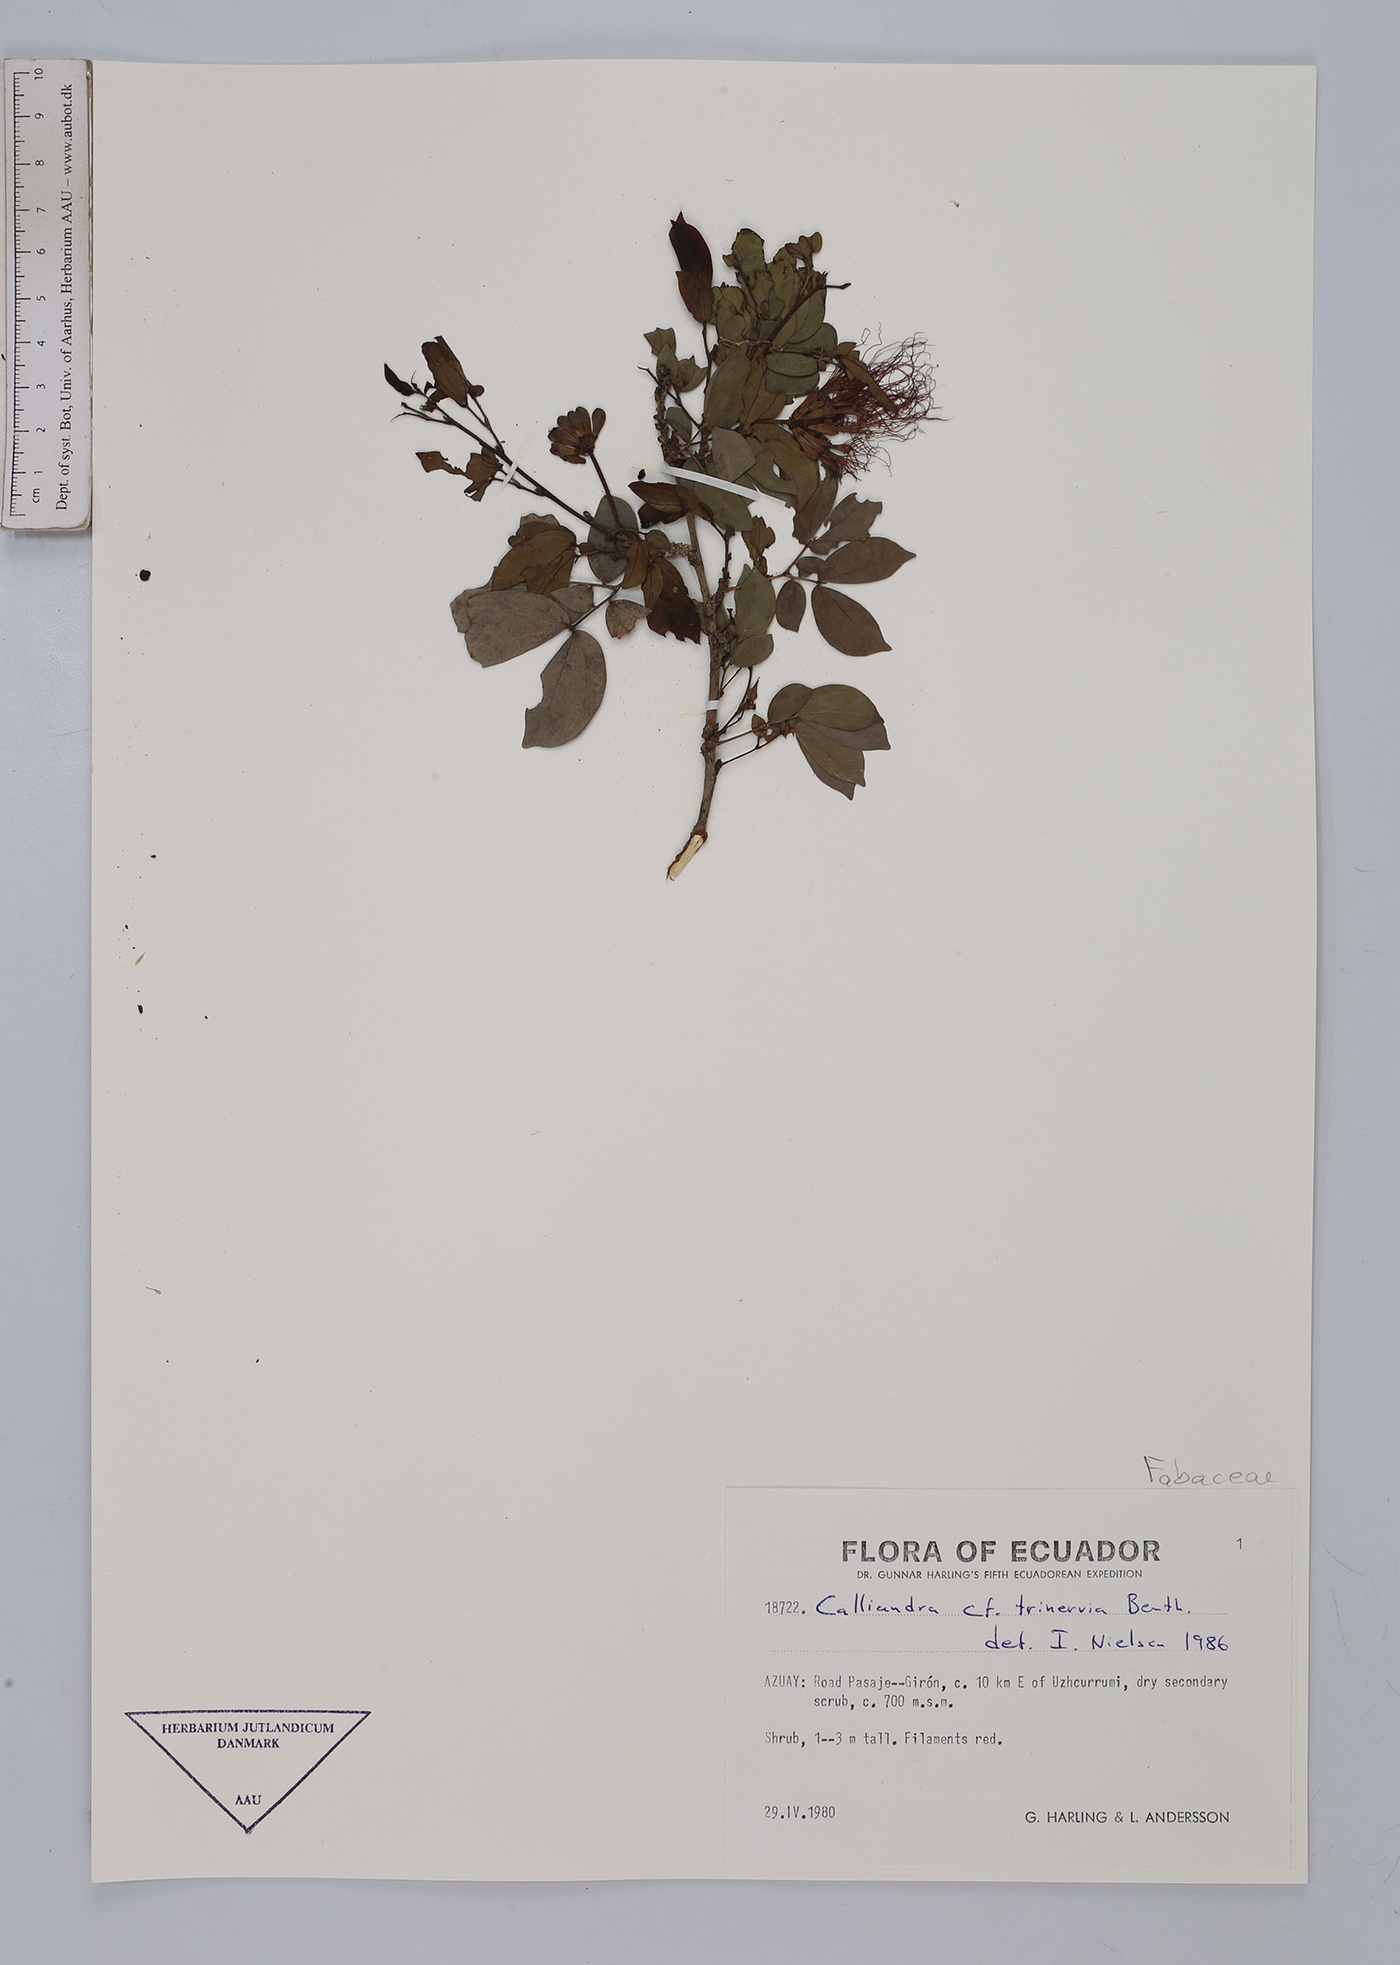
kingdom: Plantae
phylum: Tracheophyta
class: Magnoliopsida
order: Fabales
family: Fabaceae
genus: Calliandra
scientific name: Calliandra trinervia
